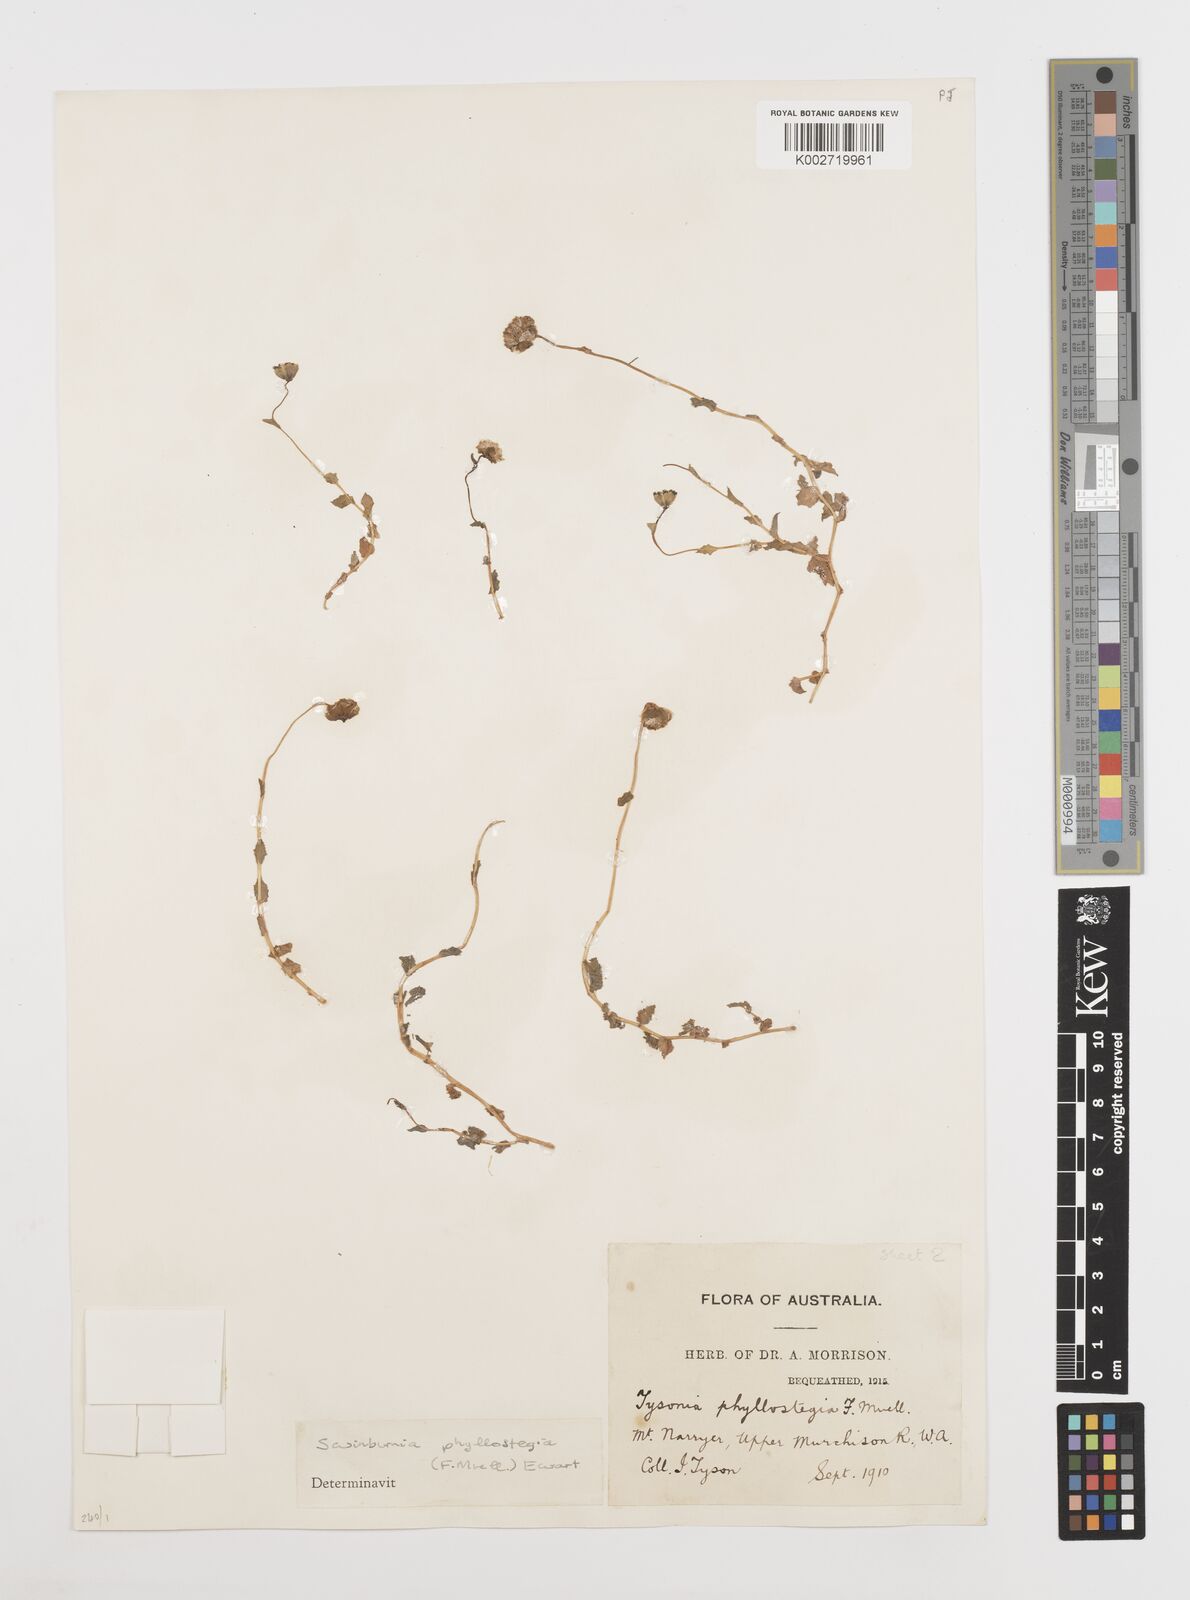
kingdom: Plantae
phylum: Tracheophyta
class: Magnoliopsida
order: Asterales
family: Asteraceae
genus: Neotysonia
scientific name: Neotysonia phyllostegia
